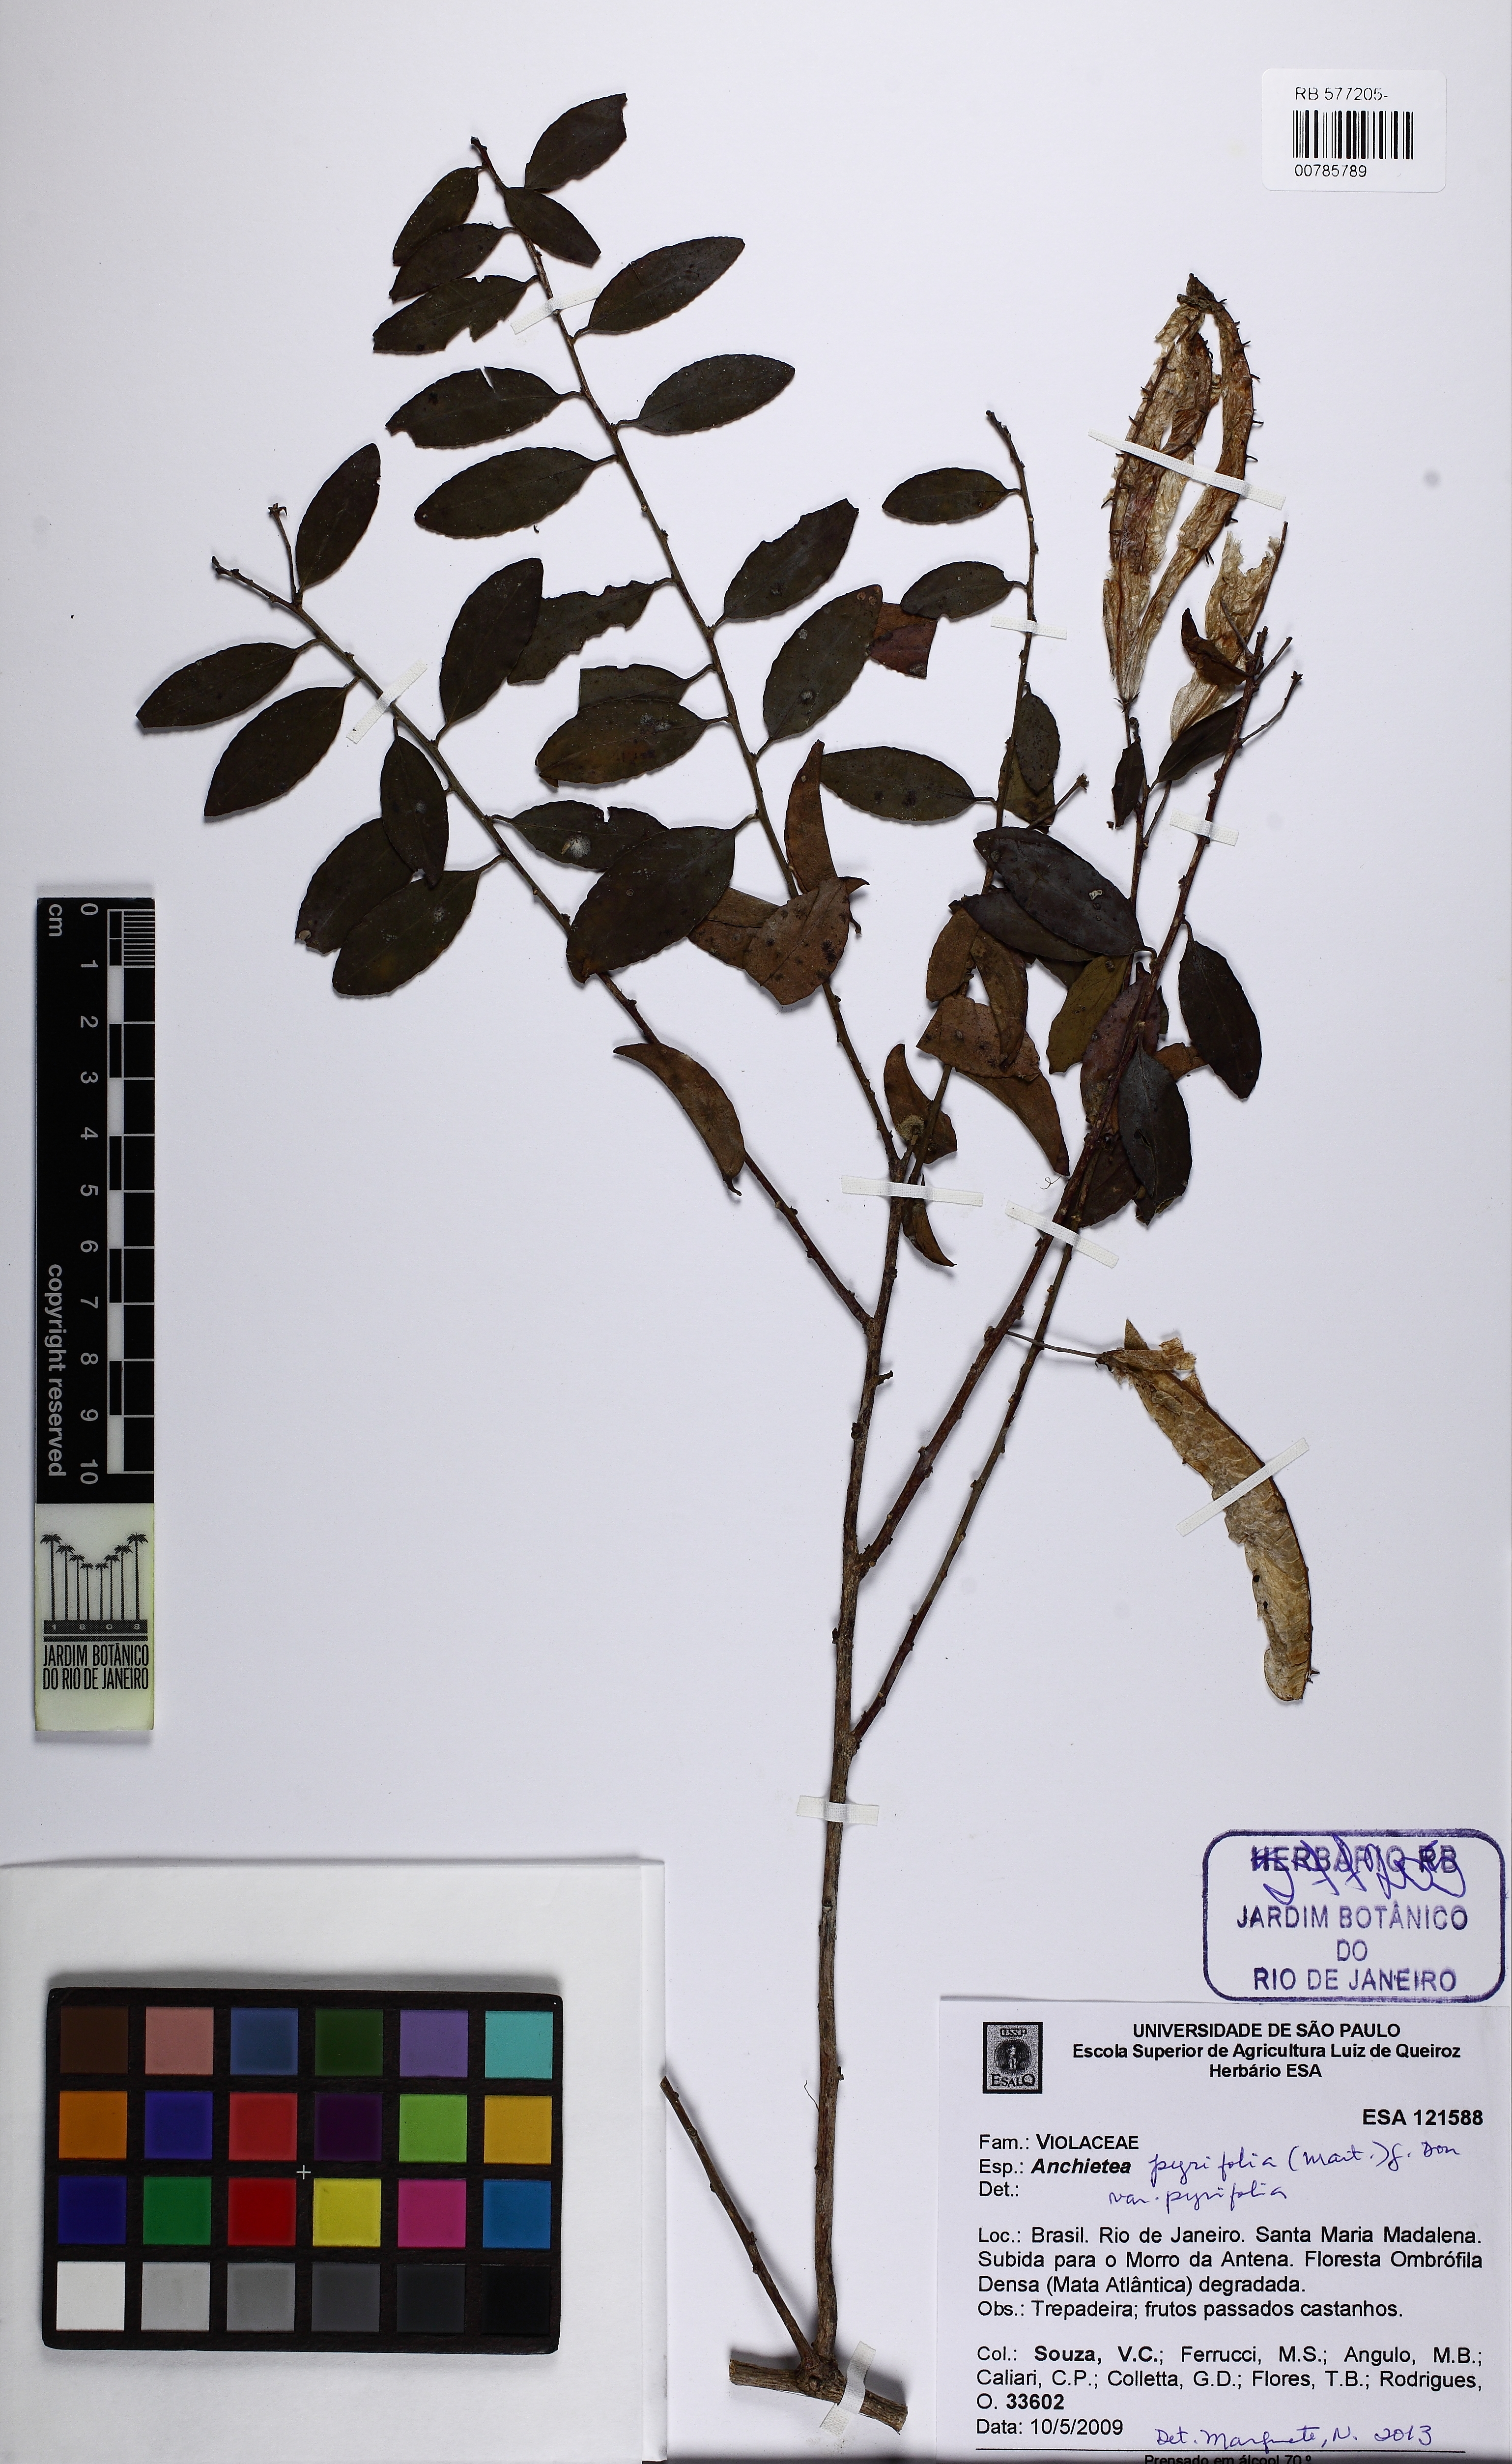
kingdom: Plantae
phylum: Tracheophyta
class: Magnoliopsida
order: Malpighiales
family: Violaceae
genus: Anchietea
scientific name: Anchietea pyrifolia
